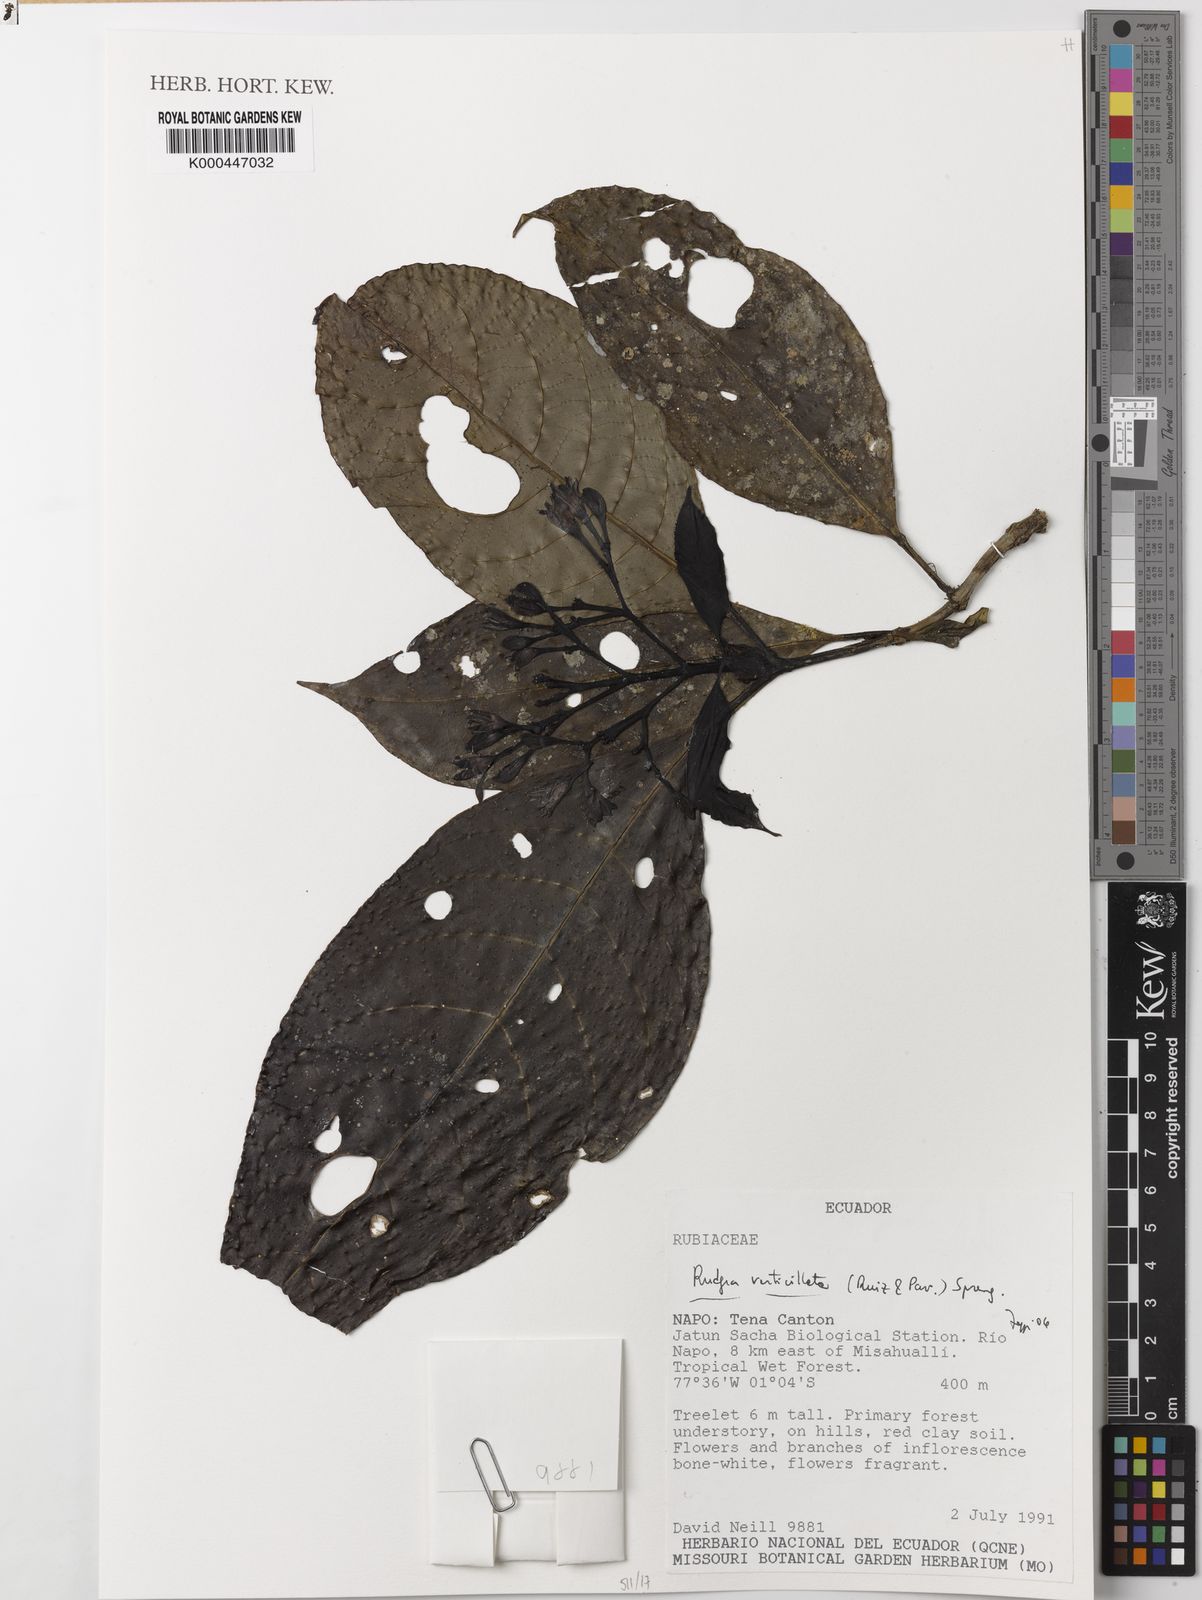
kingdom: Plantae
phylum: Tracheophyta
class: Magnoliopsida
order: Gentianales
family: Rubiaceae
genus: Rudgea
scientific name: Rudgea verticillata
